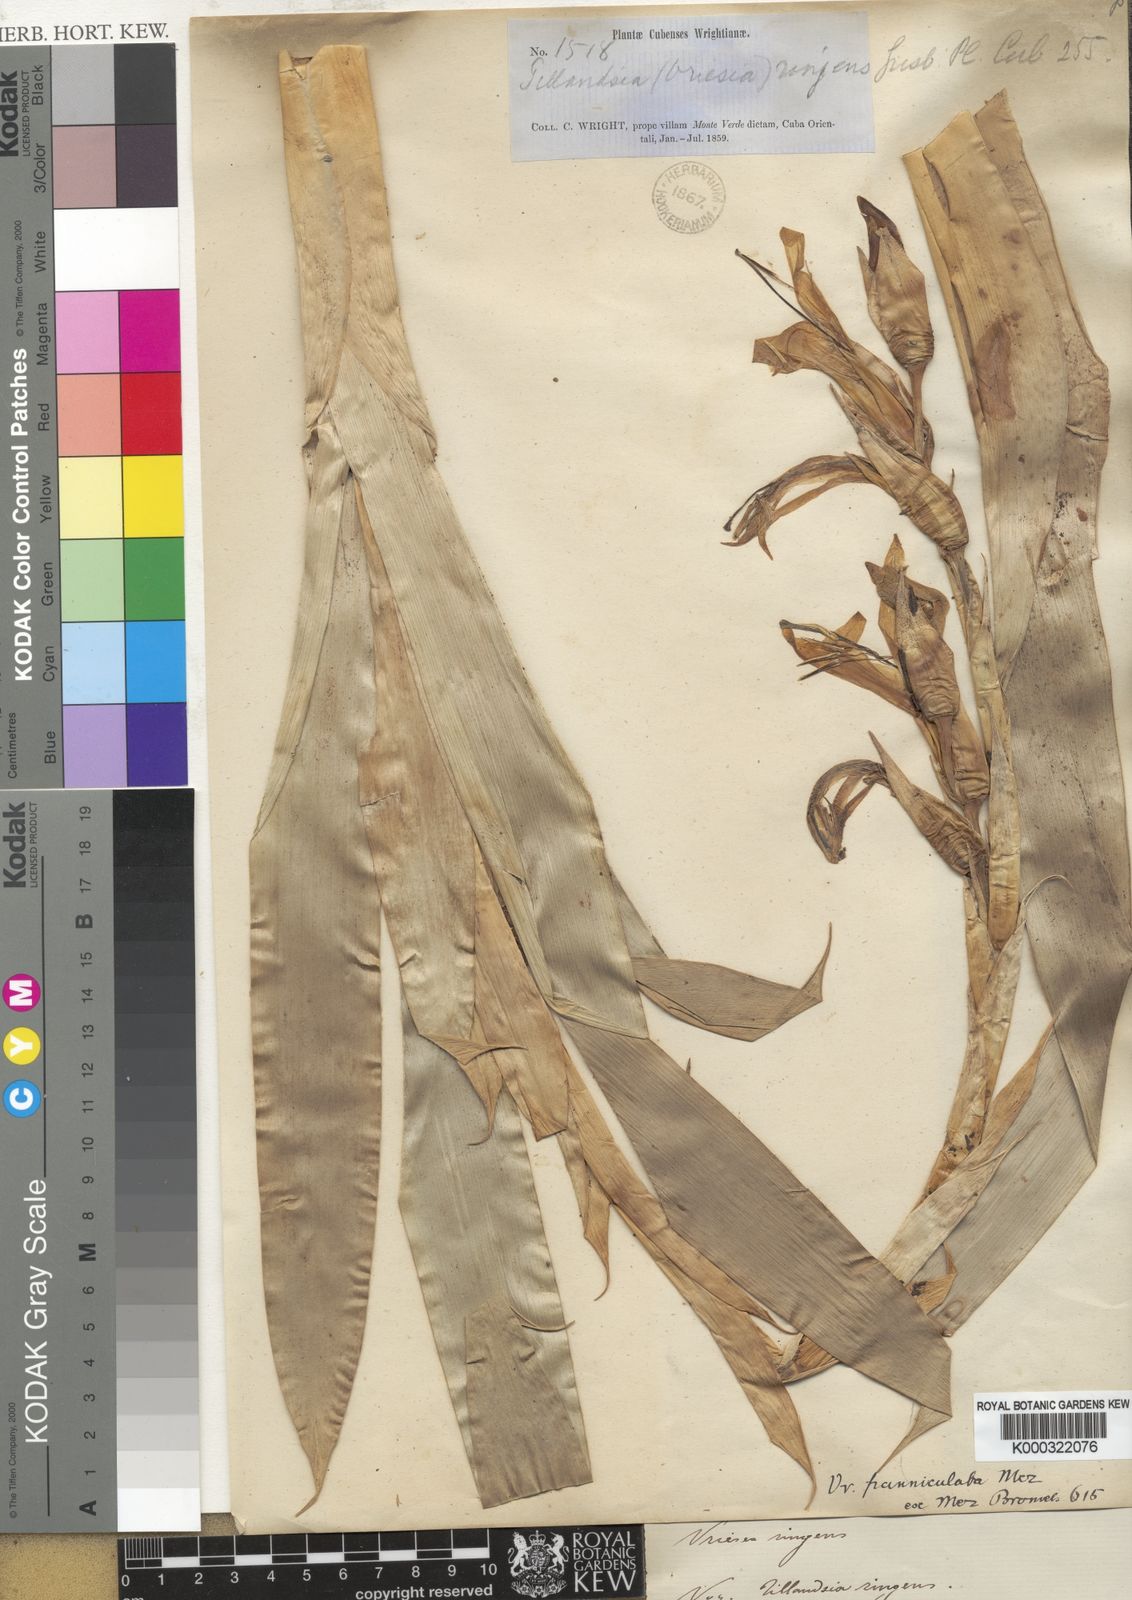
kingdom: Plantae
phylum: Tracheophyta
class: Liliopsida
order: Poales
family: Bromeliaceae
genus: Werauhia
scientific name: Werauhia ringens
